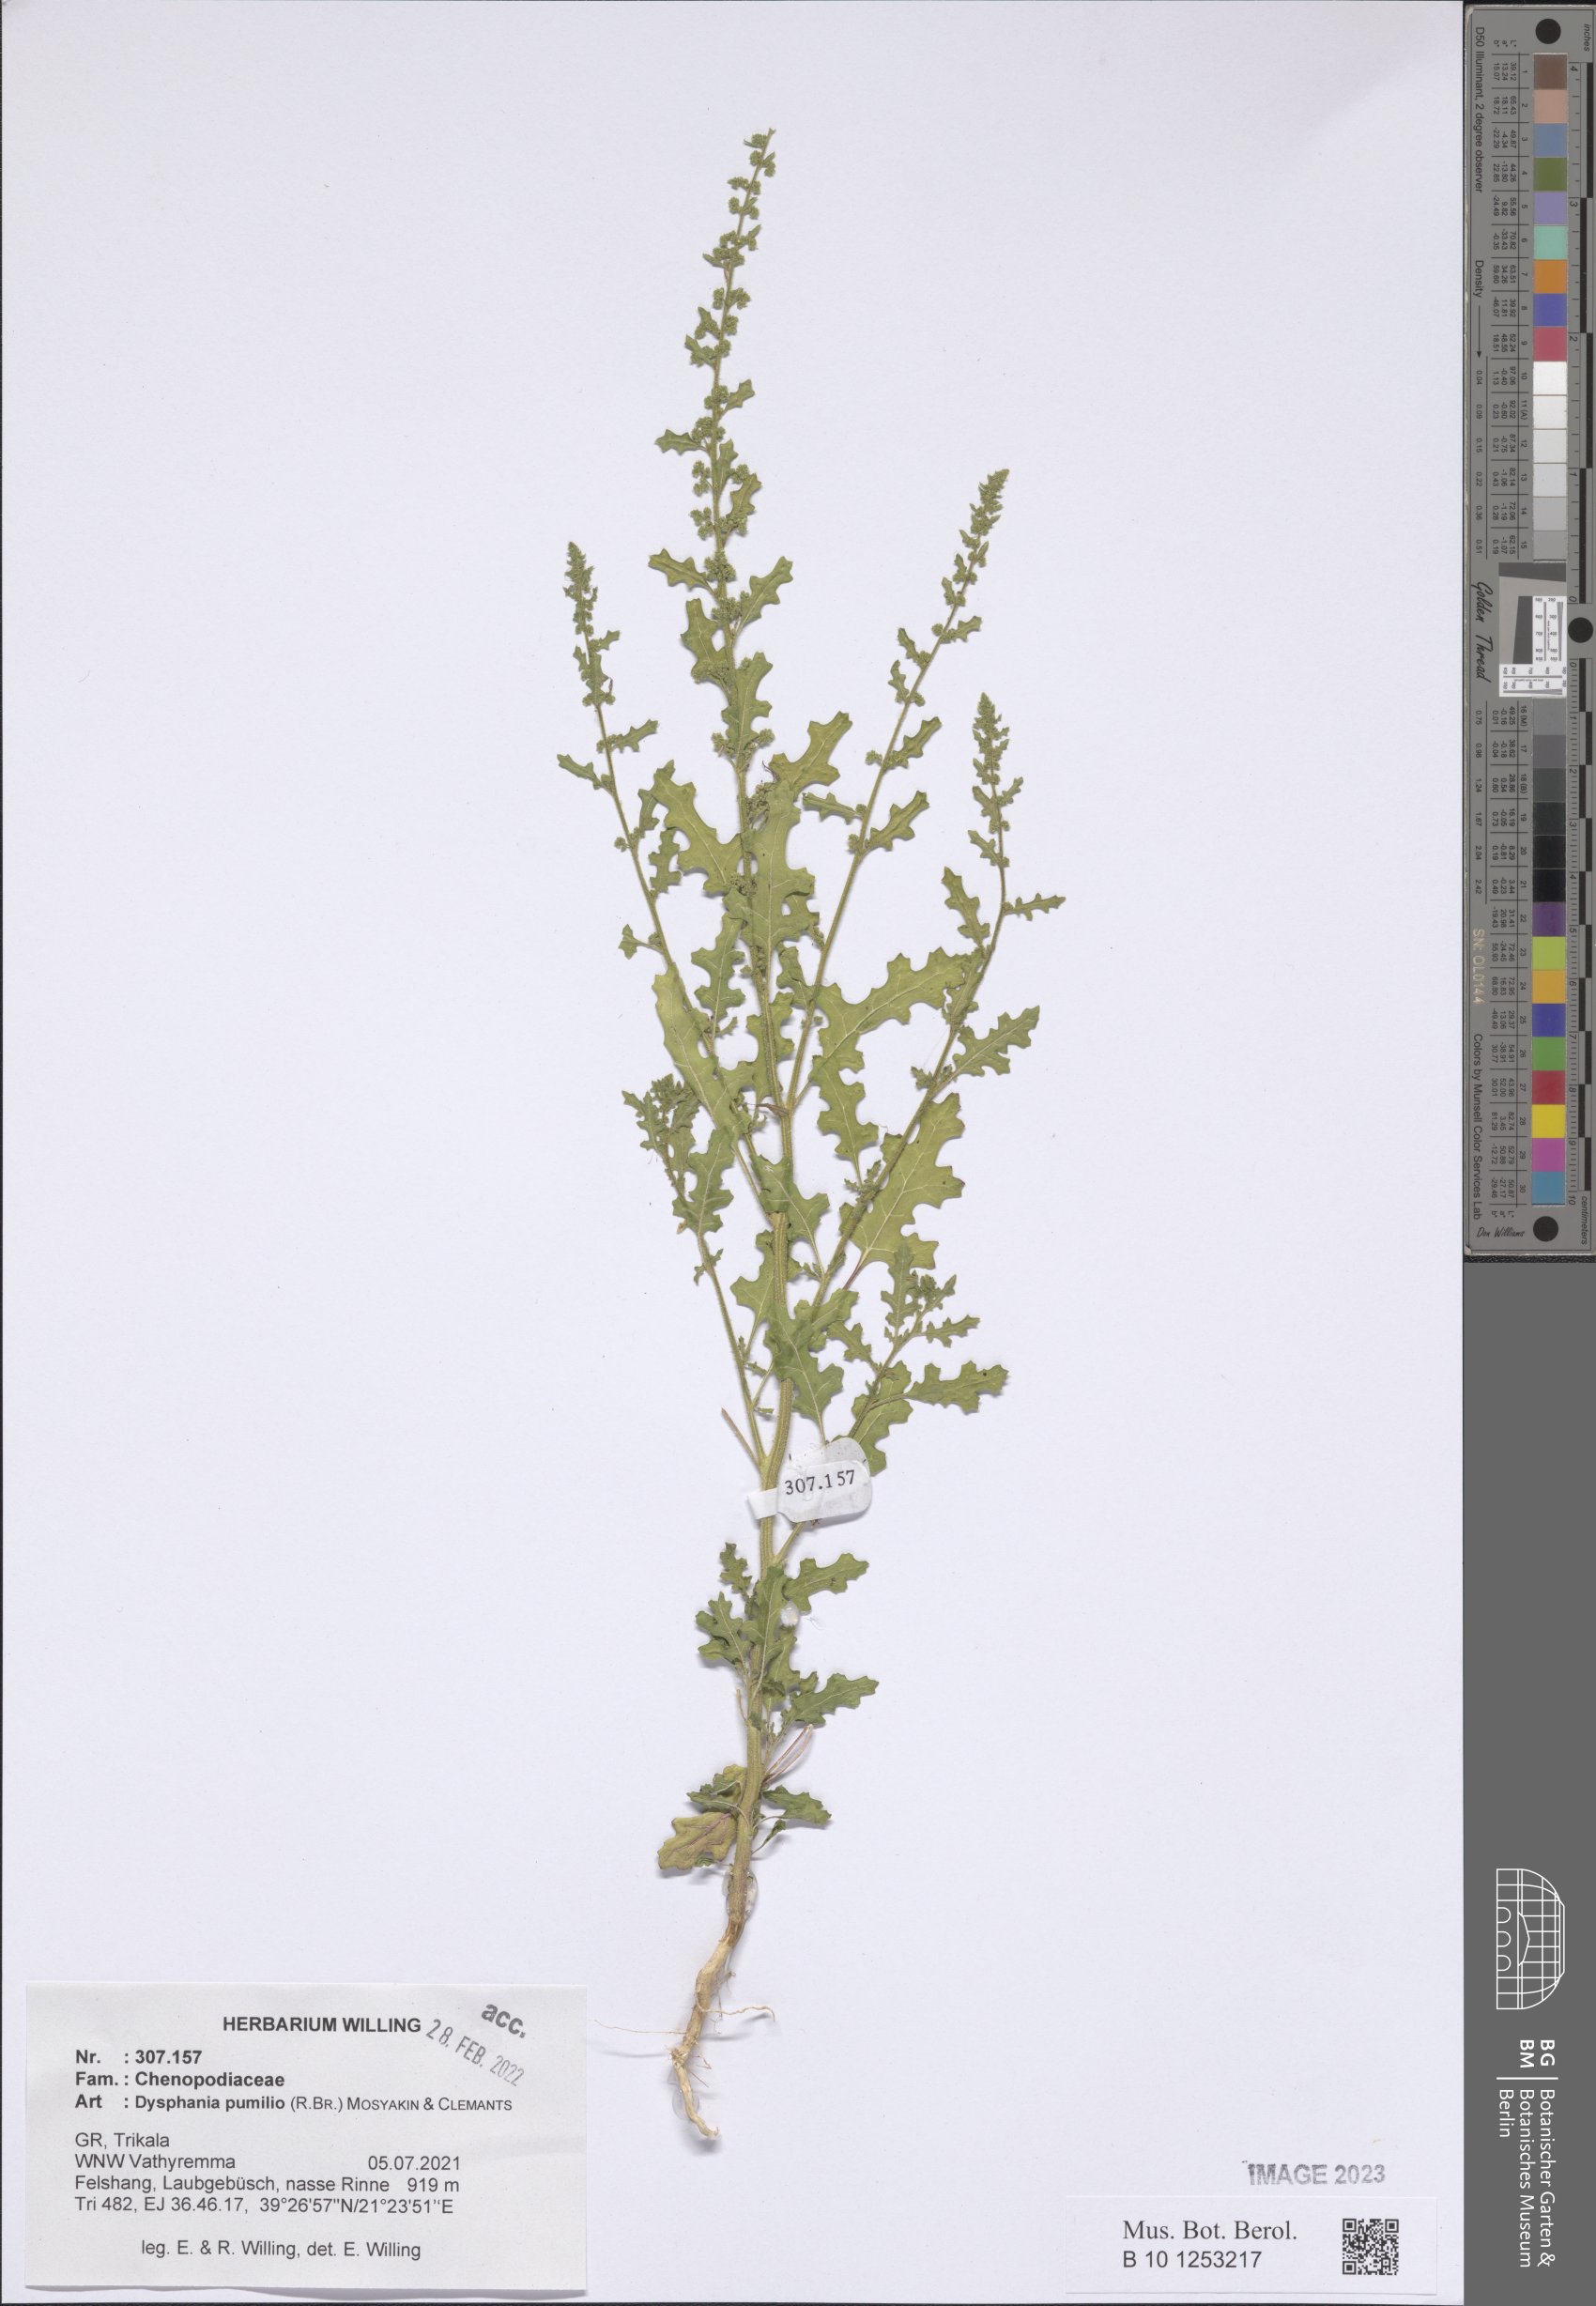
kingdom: Plantae
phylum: Tracheophyta
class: Magnoliopsida
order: Caryophyllales
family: Amaranthaceae
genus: Dysphania
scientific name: Dysphania pumilio
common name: Clammy goosefoot
